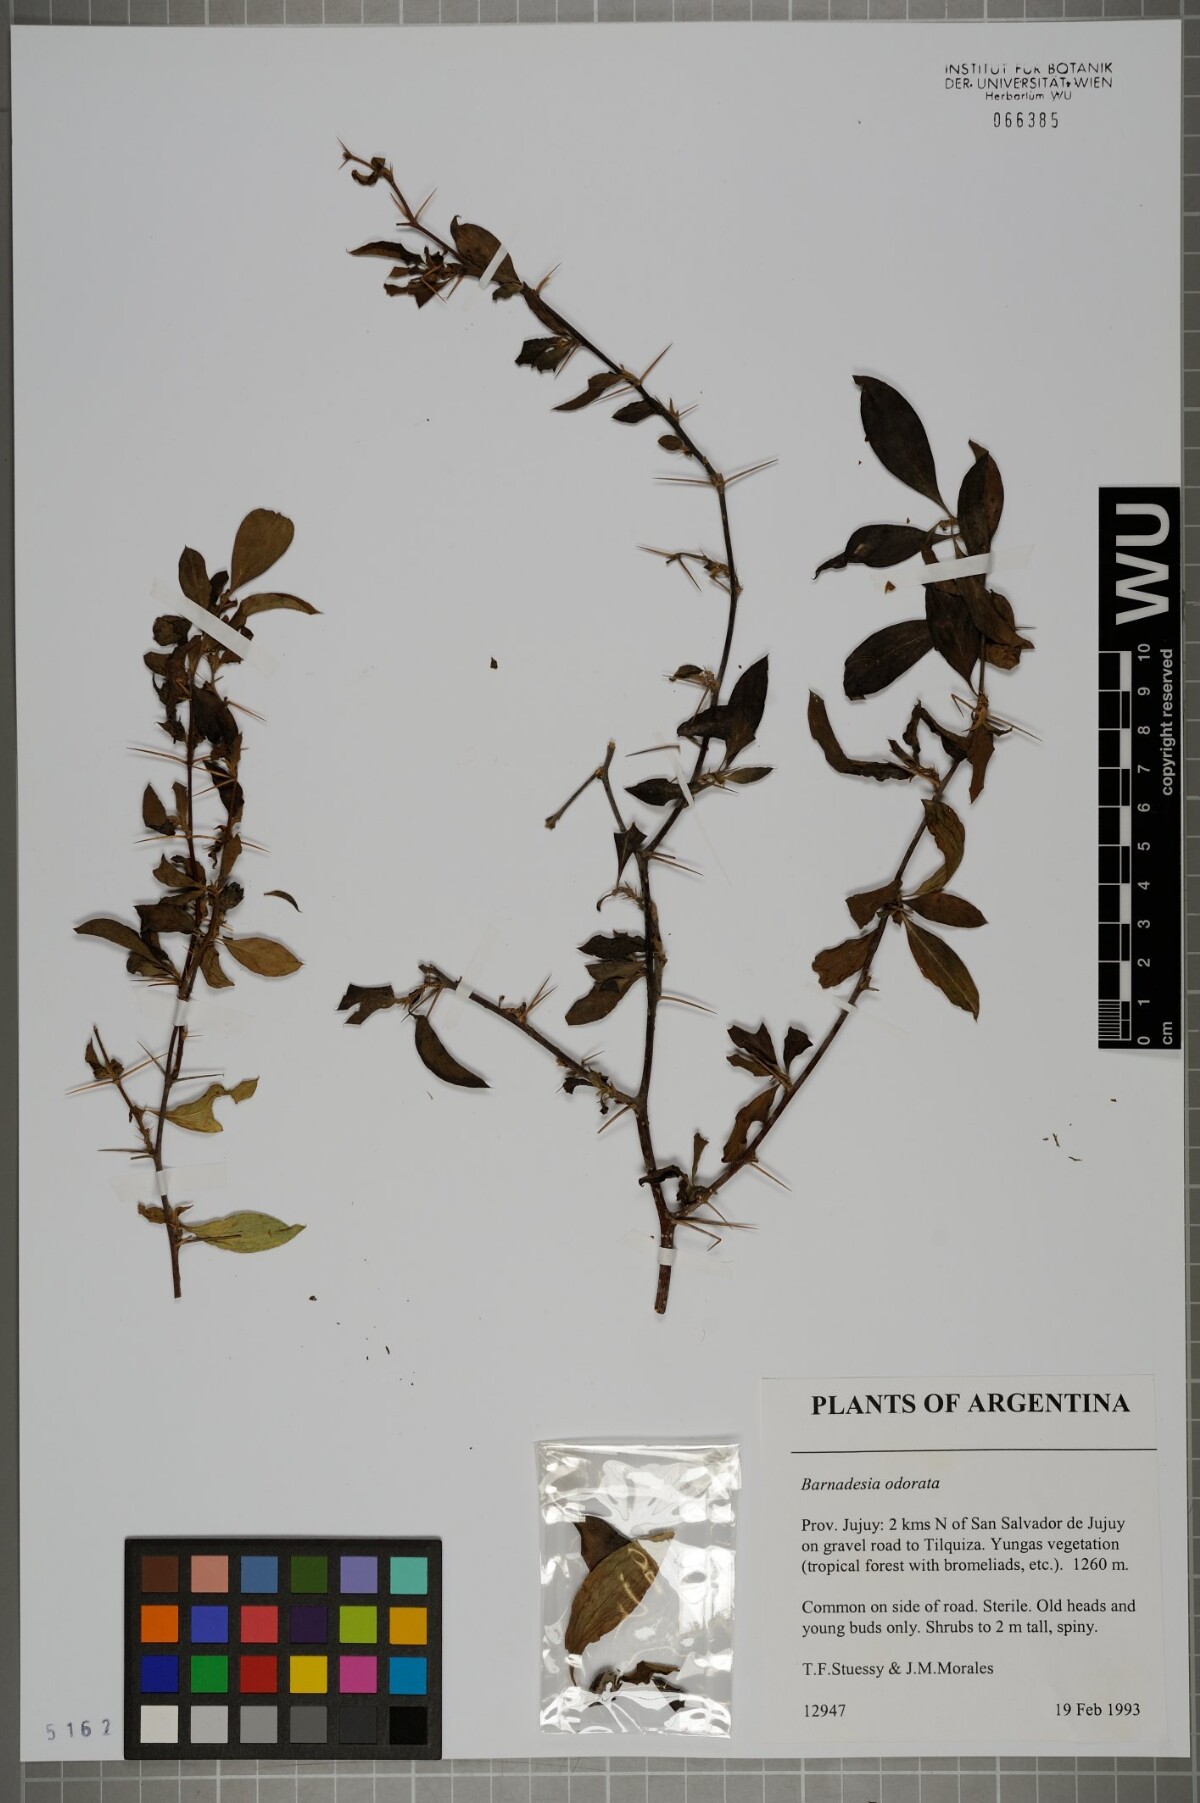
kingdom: Plantae
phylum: Tracheophyta
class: Magnoliopsida
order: Asterales
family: Asteraceae
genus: Barnadesia
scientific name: Barnadesia odorata
